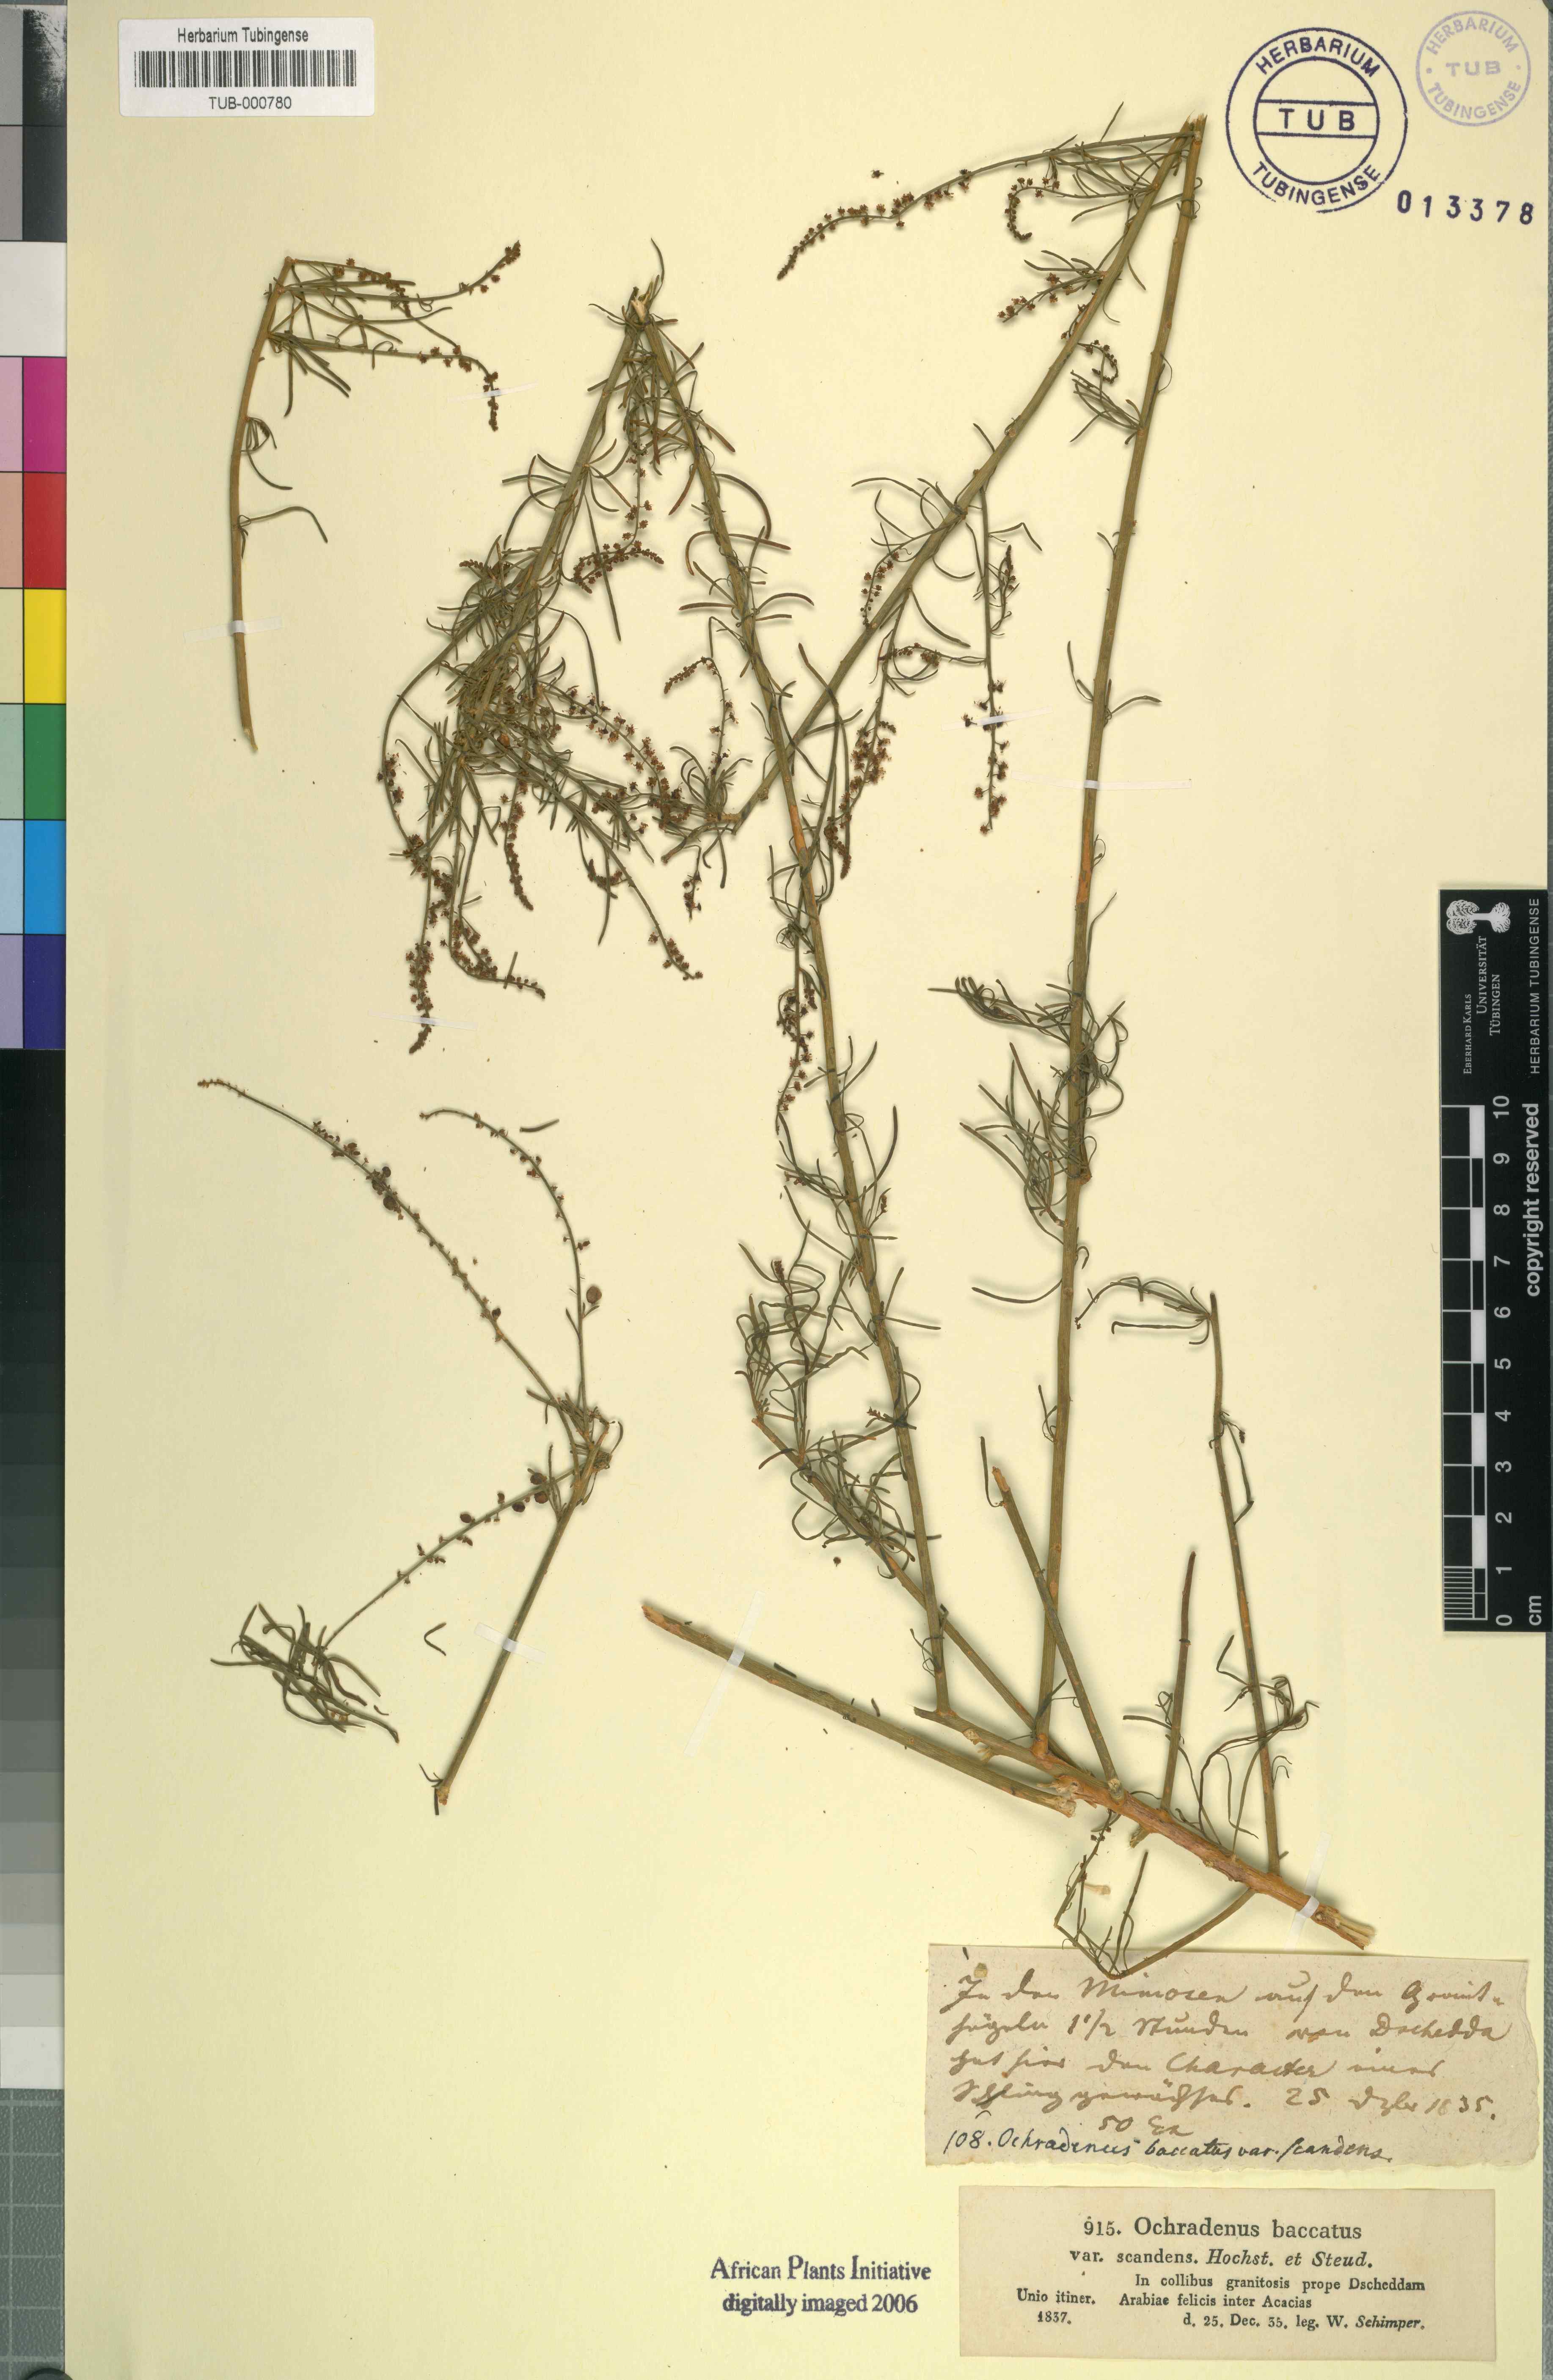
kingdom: Plantae
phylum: Tracheophyta
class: Magnoliopsida
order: Brassicales
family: Resedaceae
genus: Ochradenus
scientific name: Ochradenus baccatus
